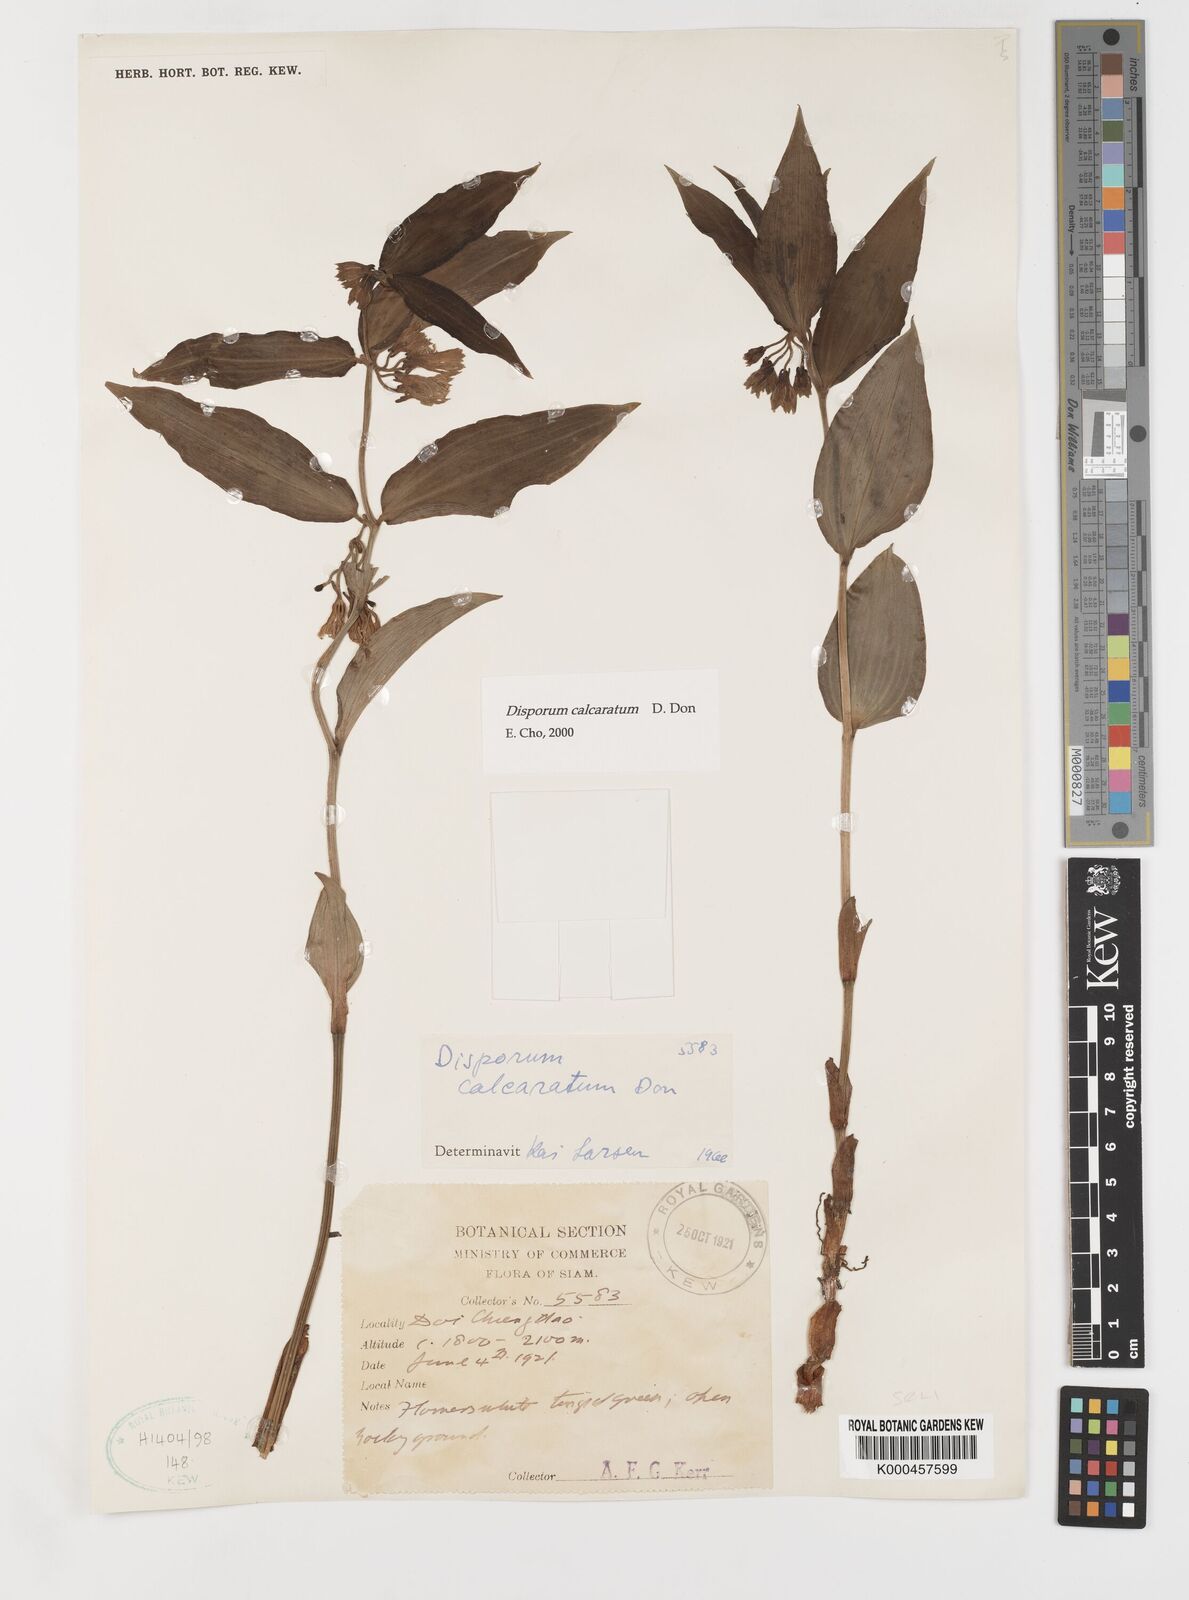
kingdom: Plantae
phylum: Tracheophyta
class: Liliopsida
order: Liliales
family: Colchicaceae
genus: Disporum
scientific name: Disporum calcaratum
